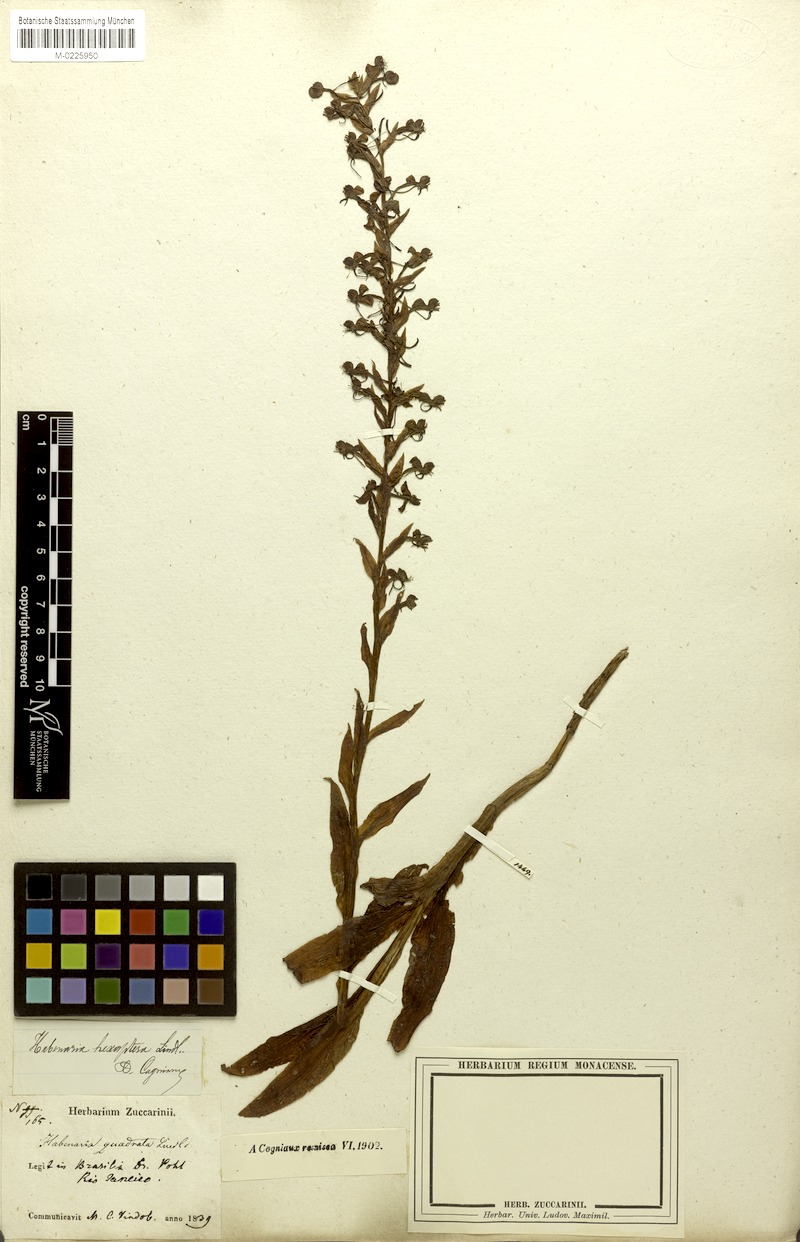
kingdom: Plantae
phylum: Tracheophyta
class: Liliopsida
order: Asparagales
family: Orchidaceae
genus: Habenaria
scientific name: Habenaria hexaptera
